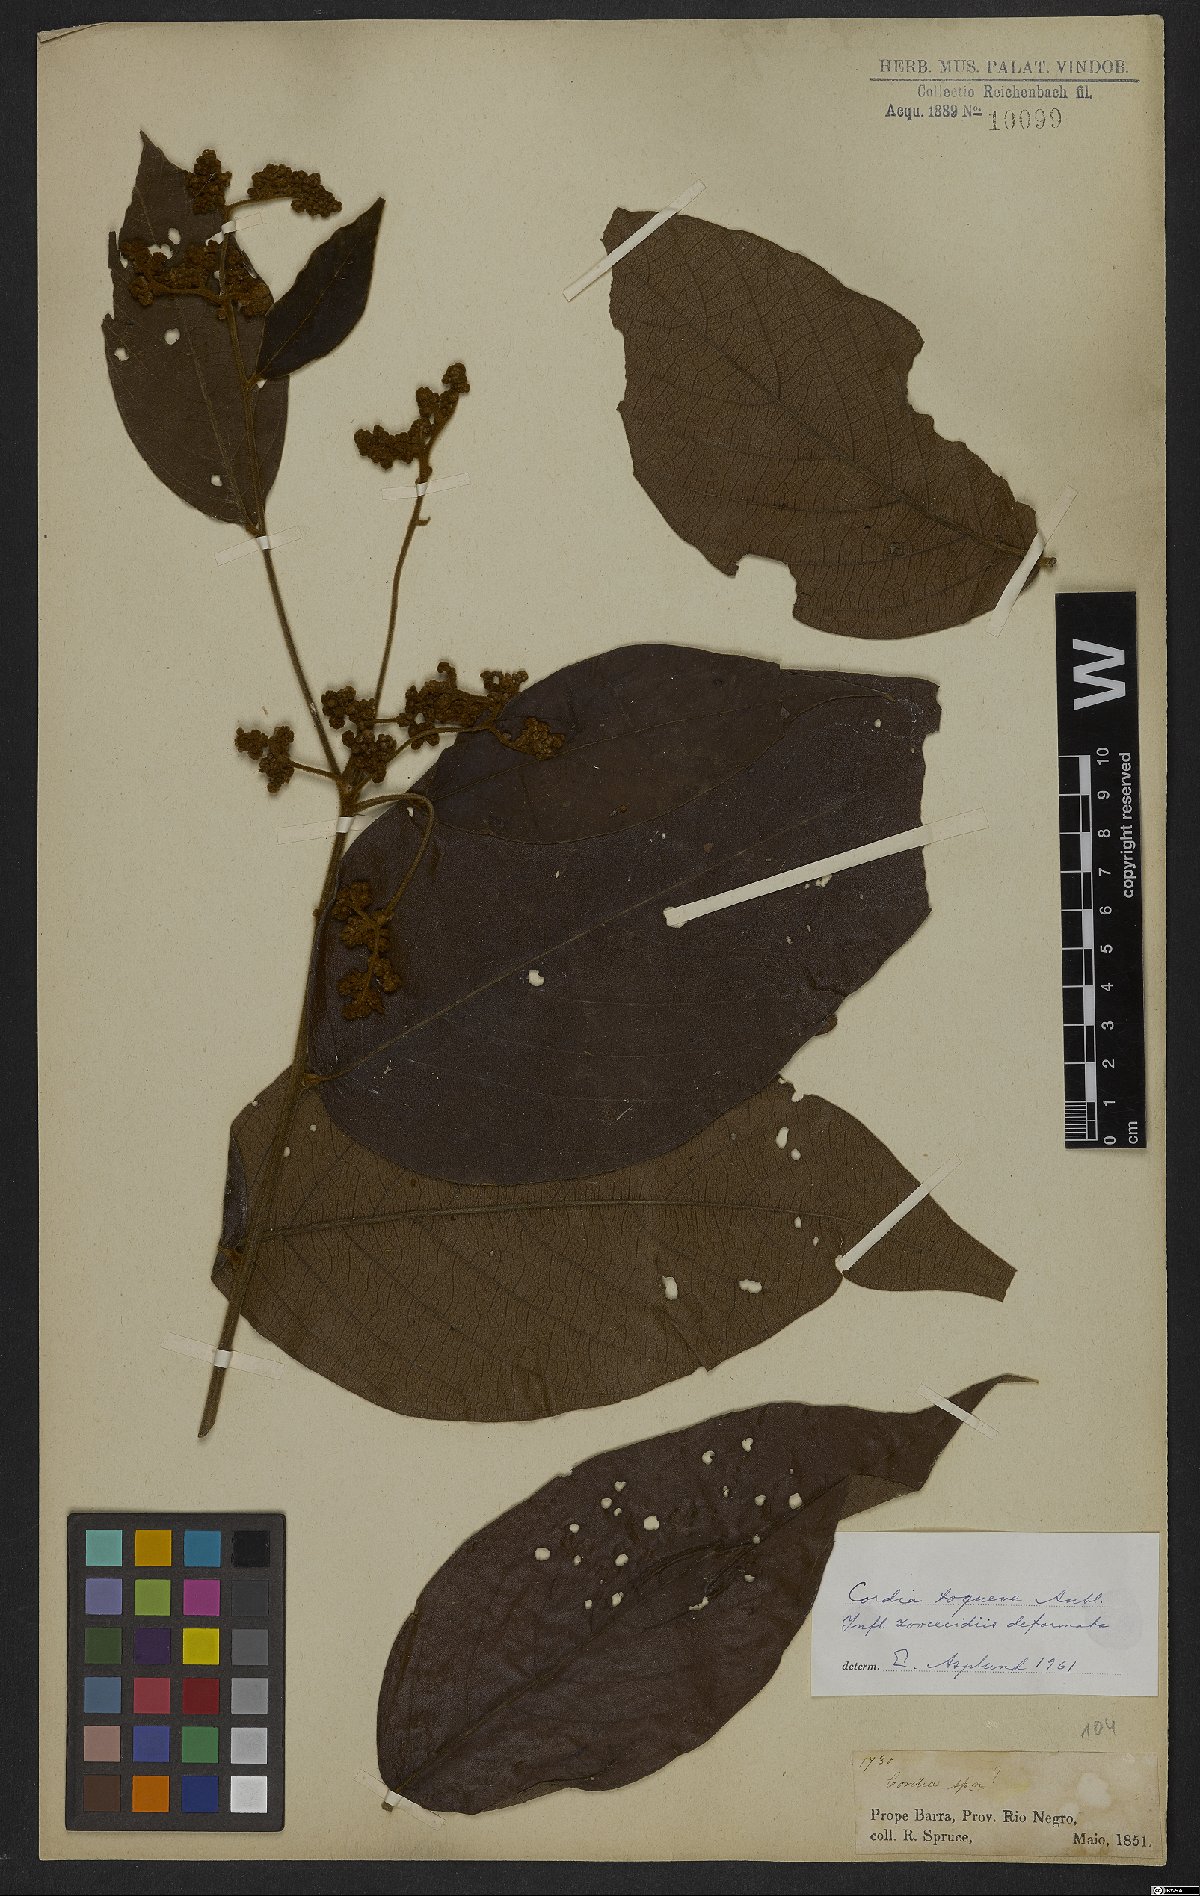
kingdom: Plantae
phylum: Tracheophyta
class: Magnoliopsida
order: Boraginales
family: Cordiaceae
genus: Cordia
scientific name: Cordia toqueve
